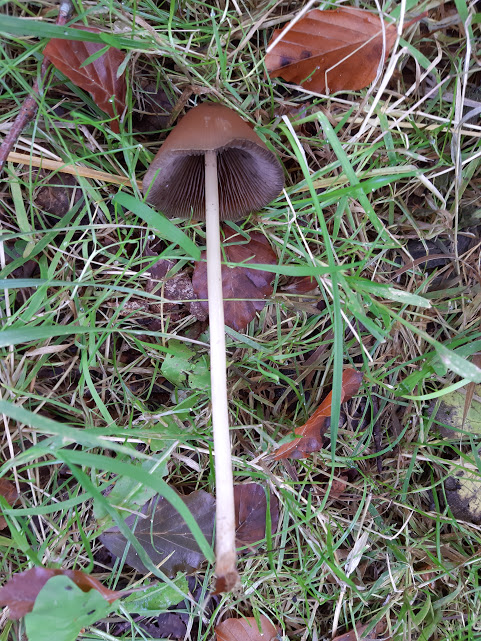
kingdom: Fungi
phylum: Basidiomycota
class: Agaricomycetes
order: Agaricales
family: Psathyrellaceae
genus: Parasola
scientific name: Parasola conopilea
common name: kegle-hjulhat
